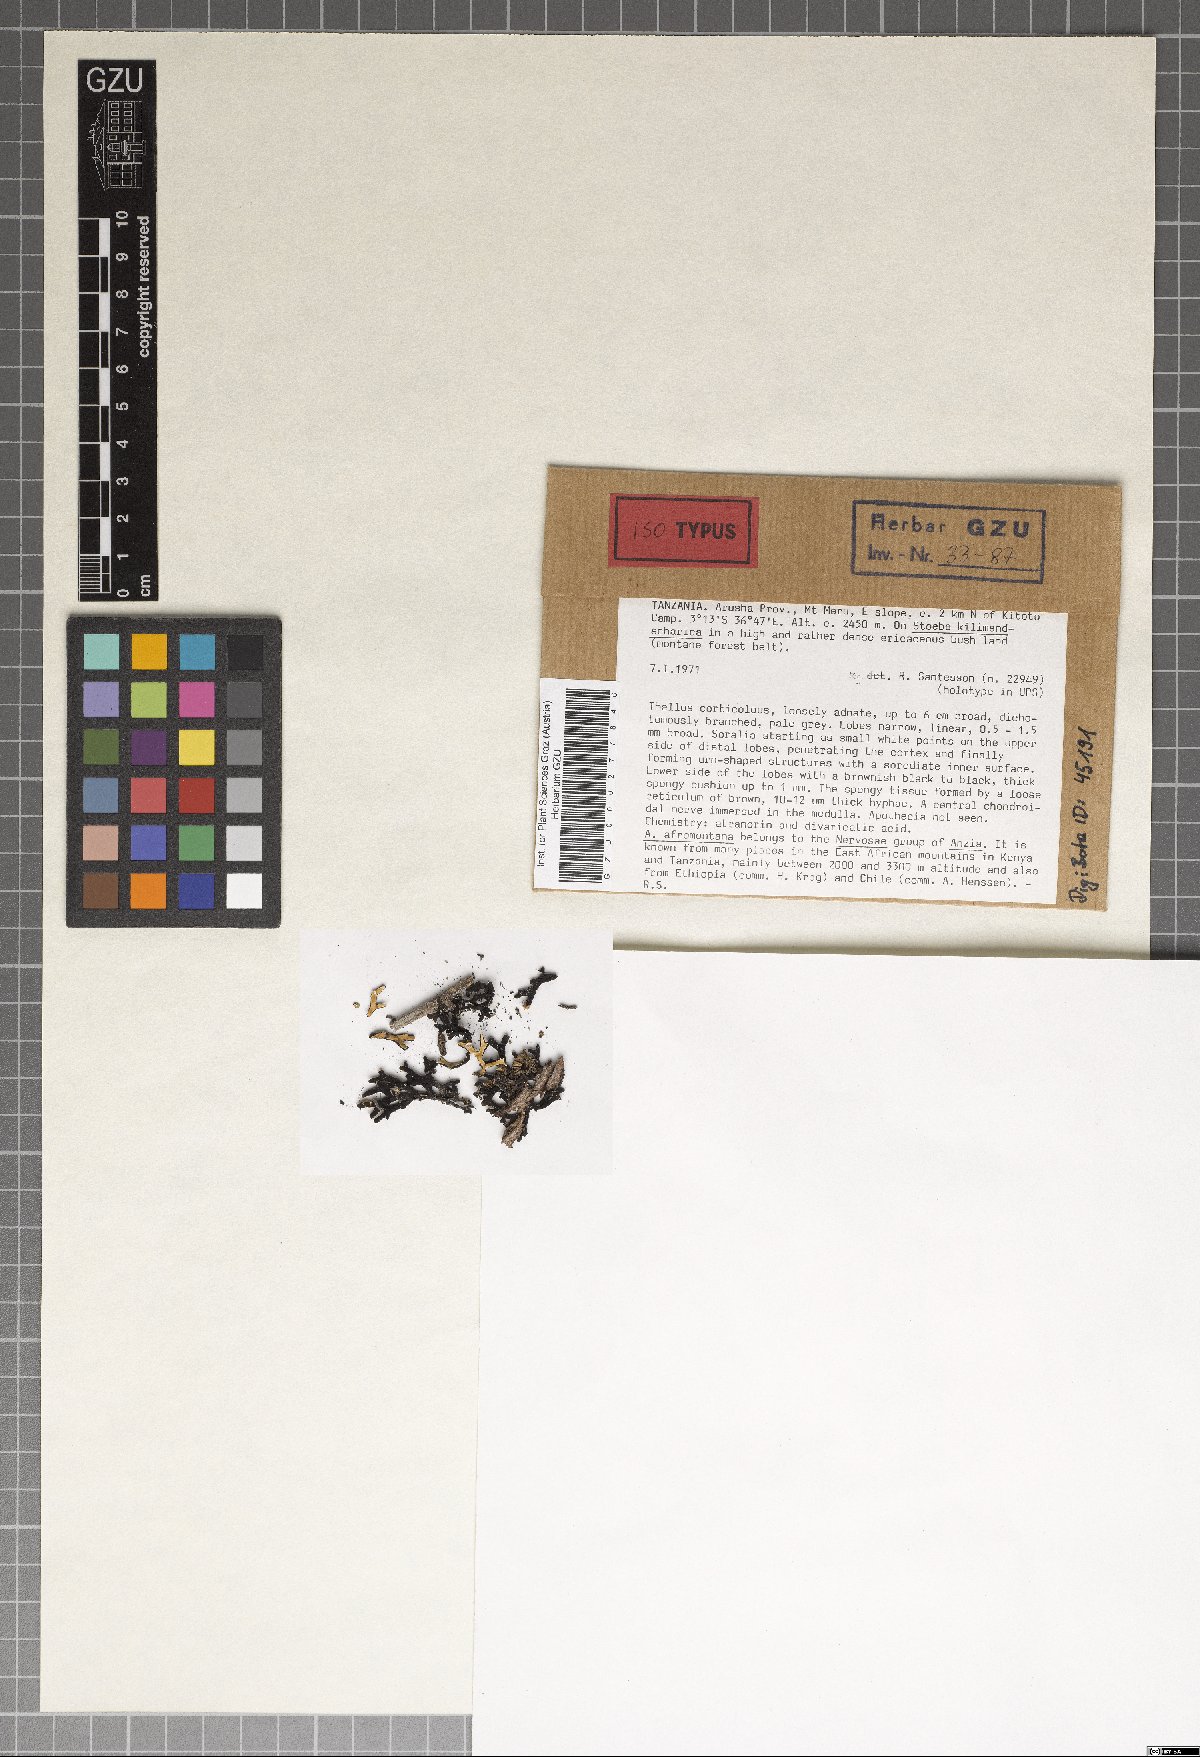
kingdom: Fungi
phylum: Ascomycota
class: Lecanoromycetes
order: Lecanorales
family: Parmeliaceae
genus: Anzia
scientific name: Anzia afromontana
